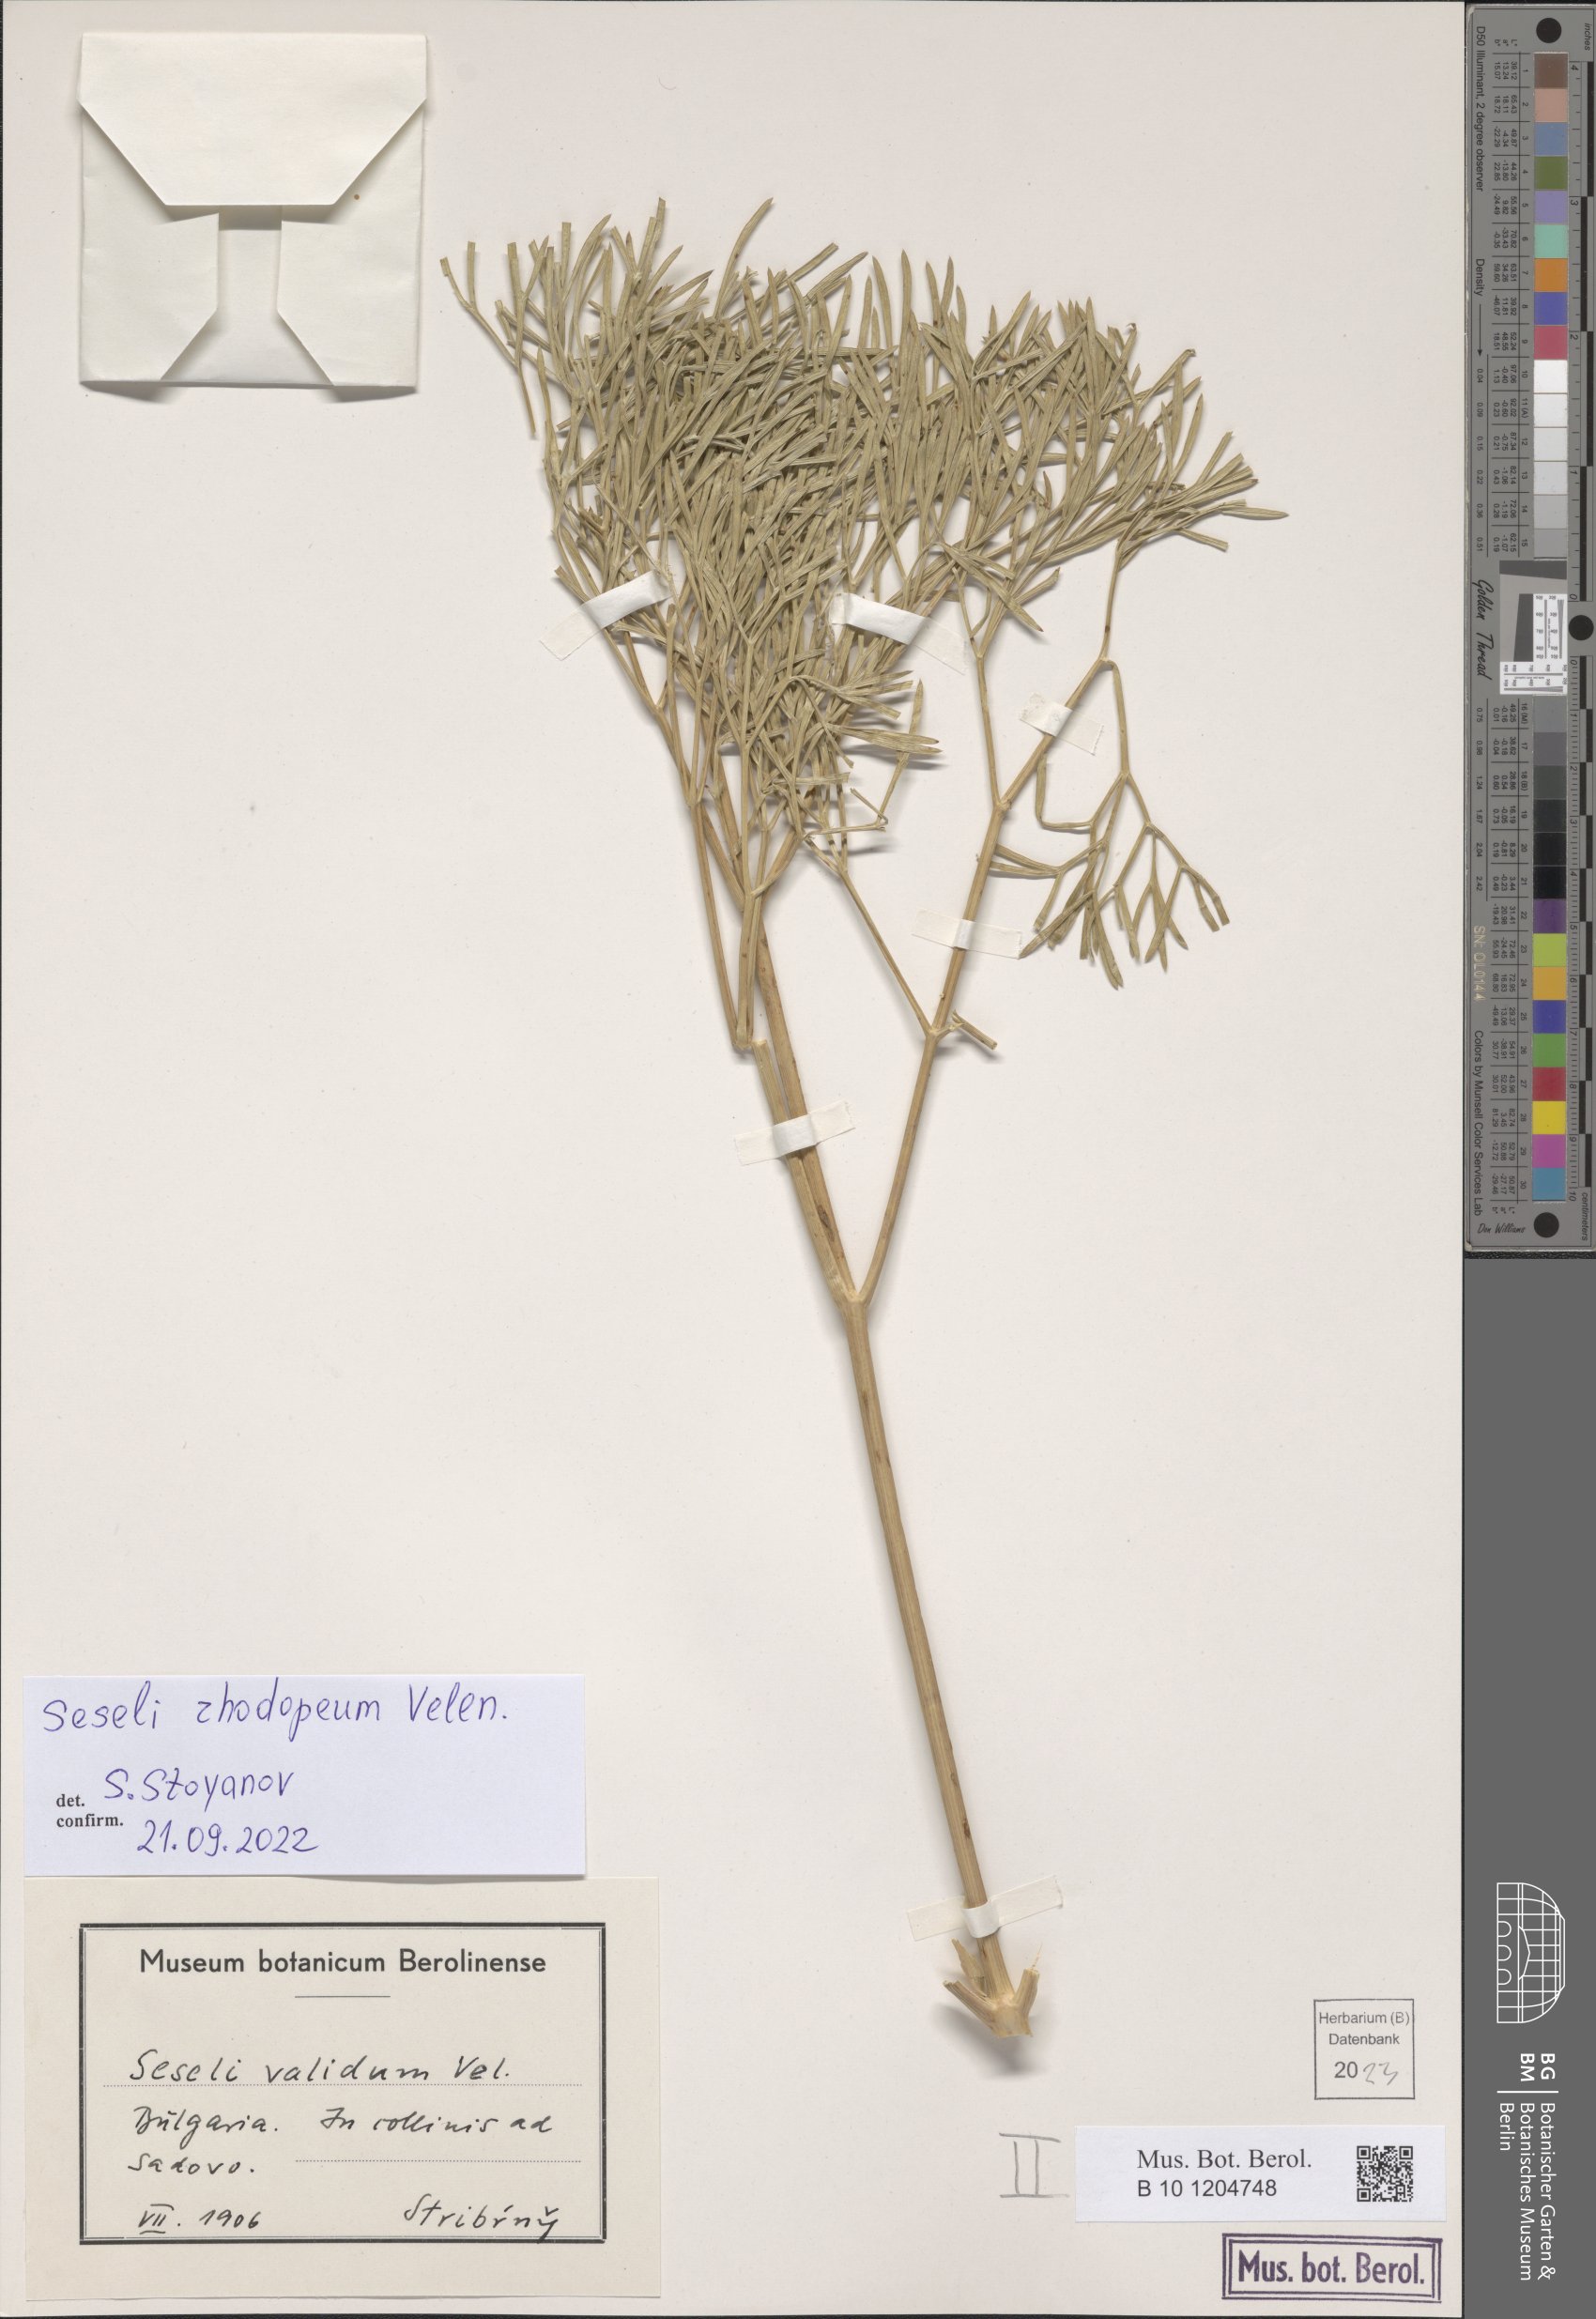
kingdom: Plantae
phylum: Tracheophyta
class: Magnoliopsida
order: Apiales
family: Apiaceae
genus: Seseli
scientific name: Seseli rhodopeum
